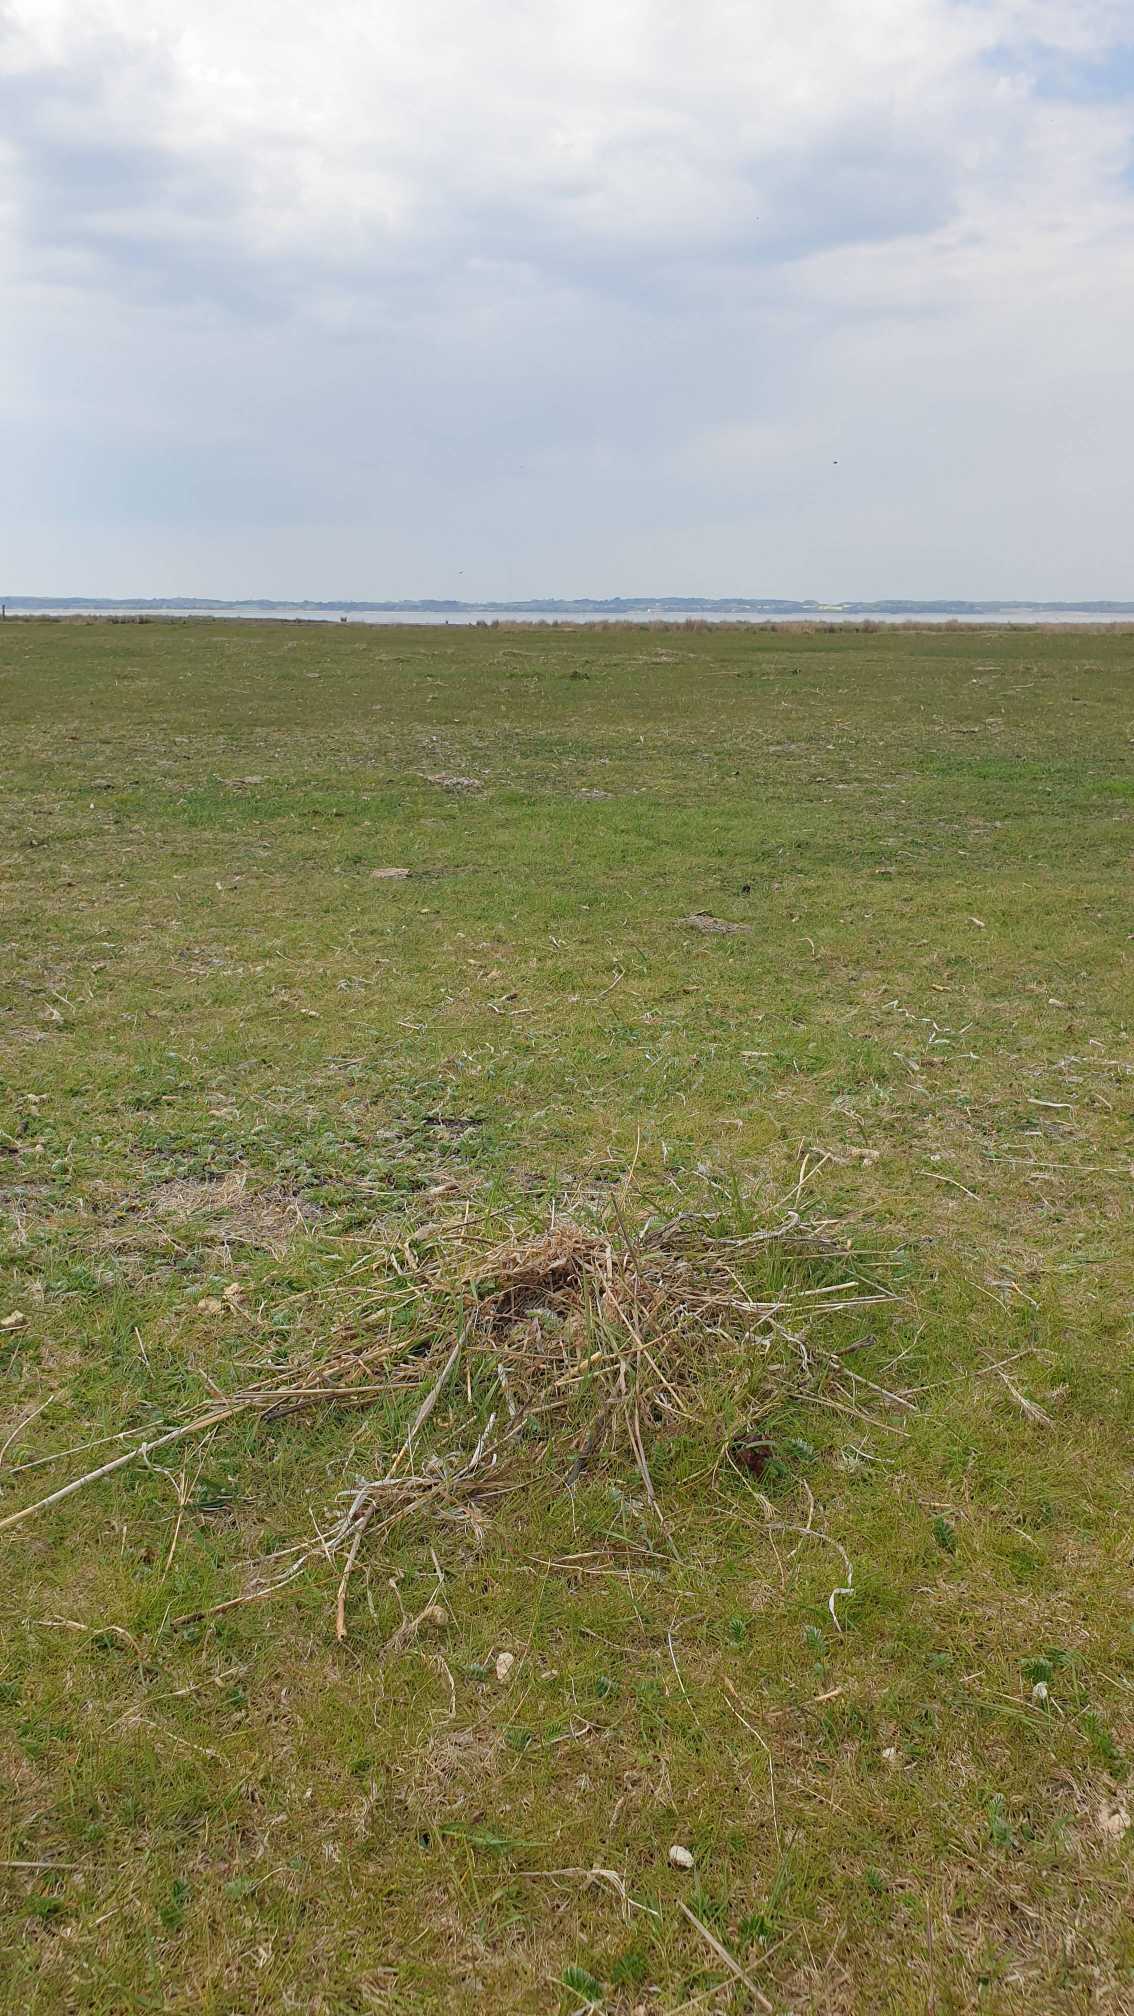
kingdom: Animalia
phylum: Chordata
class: Aves
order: Charadriiformes
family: Scolopacidae
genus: Tringa
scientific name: Tringa totanus
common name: Rødben
